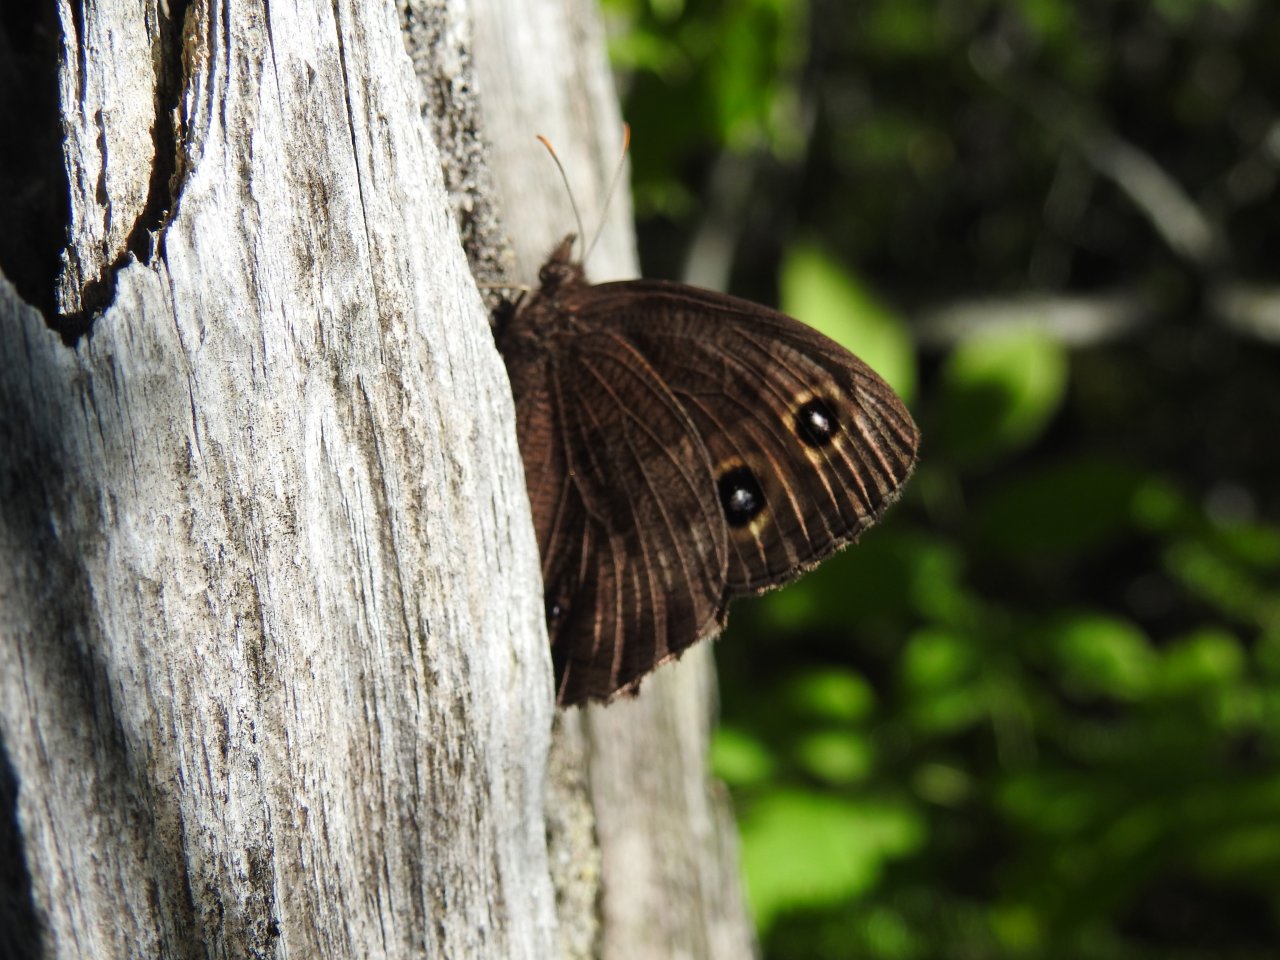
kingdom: Animalia
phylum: Arthropoda
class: Insecta
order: Lepidoptera
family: Nymphalidae
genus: Cercyonis
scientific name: Cercyonis pegala
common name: Common Wood-Nymph
